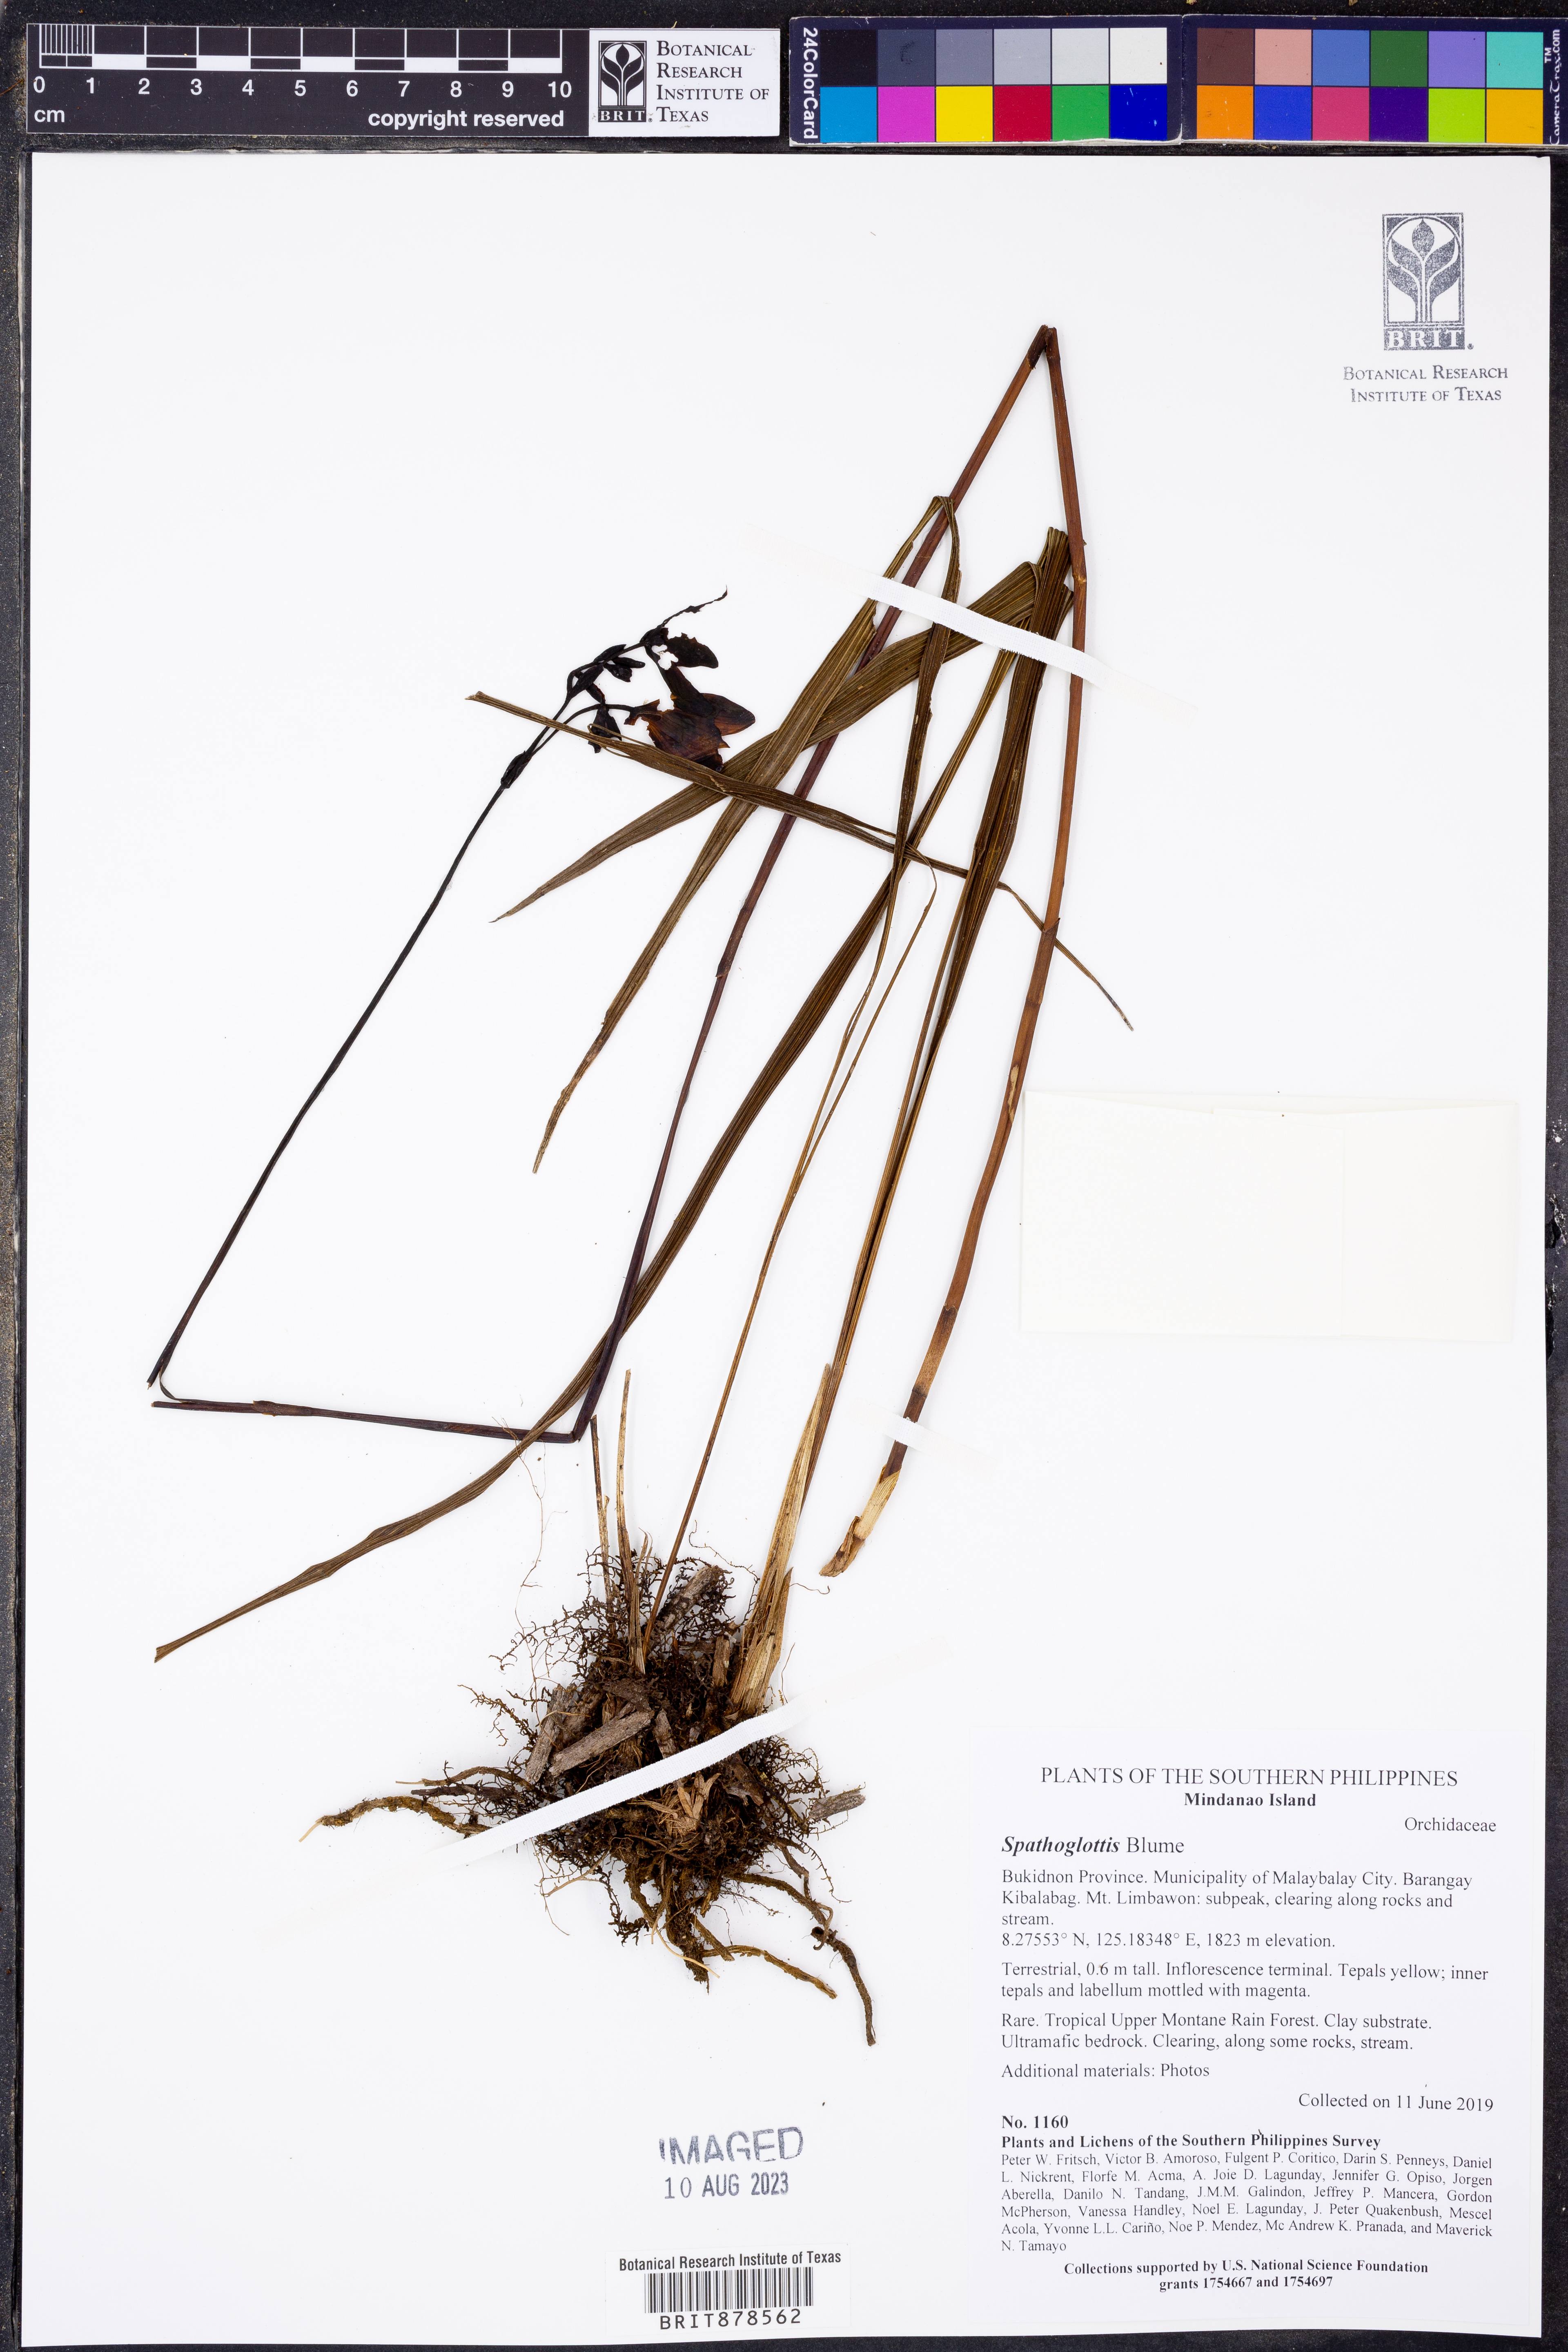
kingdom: Plantae
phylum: Tracheophyta
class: Liliopsida
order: Asparagales
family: Orchidaceae
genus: Spathoglottis
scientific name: Spathoglottis
